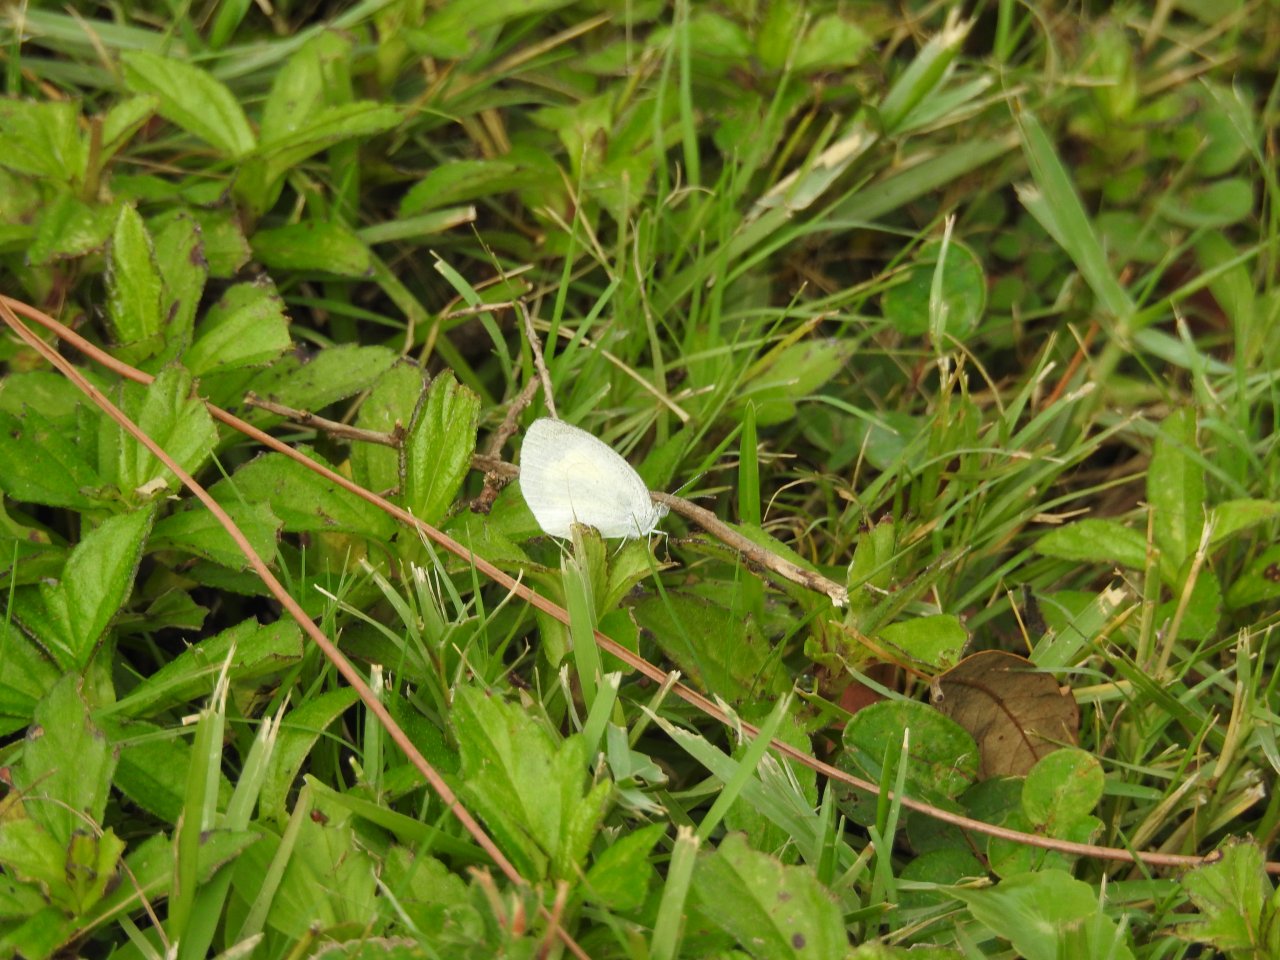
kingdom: Animalia
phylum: Arthropoda
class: Insecta
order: Lepidoptera
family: Pieridae
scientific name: Pieridae
